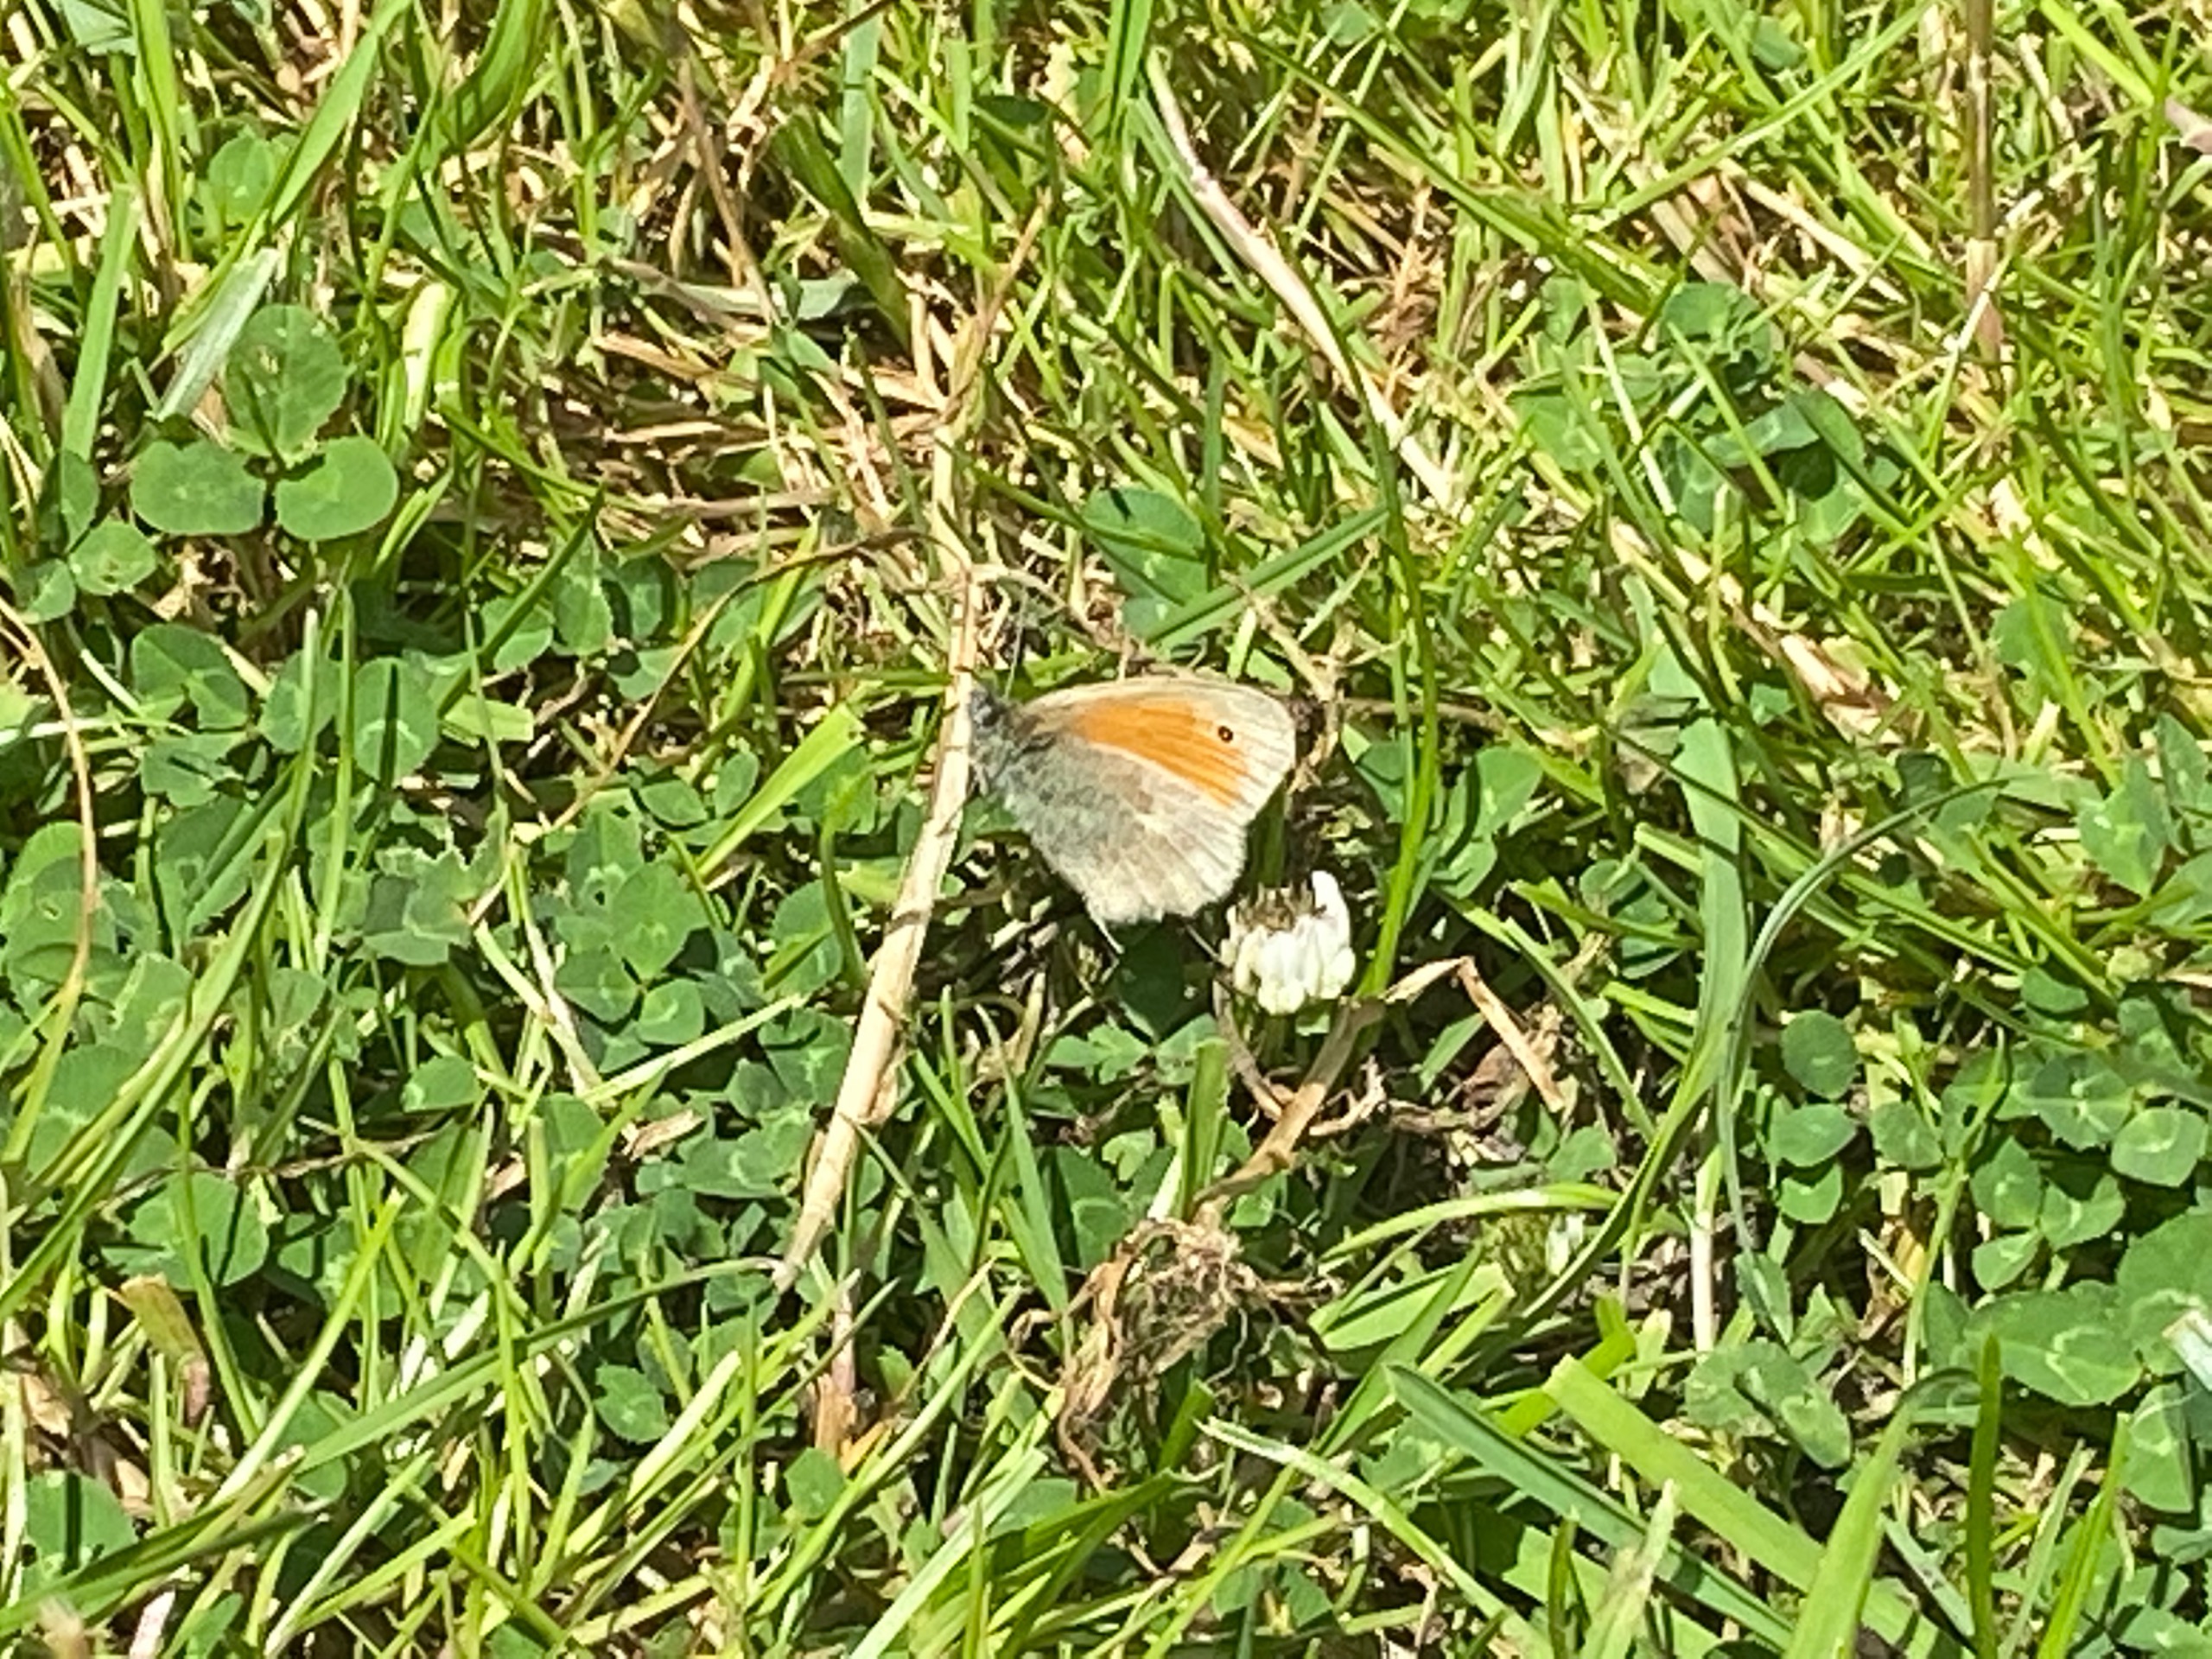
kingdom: Animalia
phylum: Arthropoda
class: Insecta
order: Lepidoptera
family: Nymphalidae
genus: Coenonympha
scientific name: Coenonympha pamphilus
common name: Okkergul randøje
